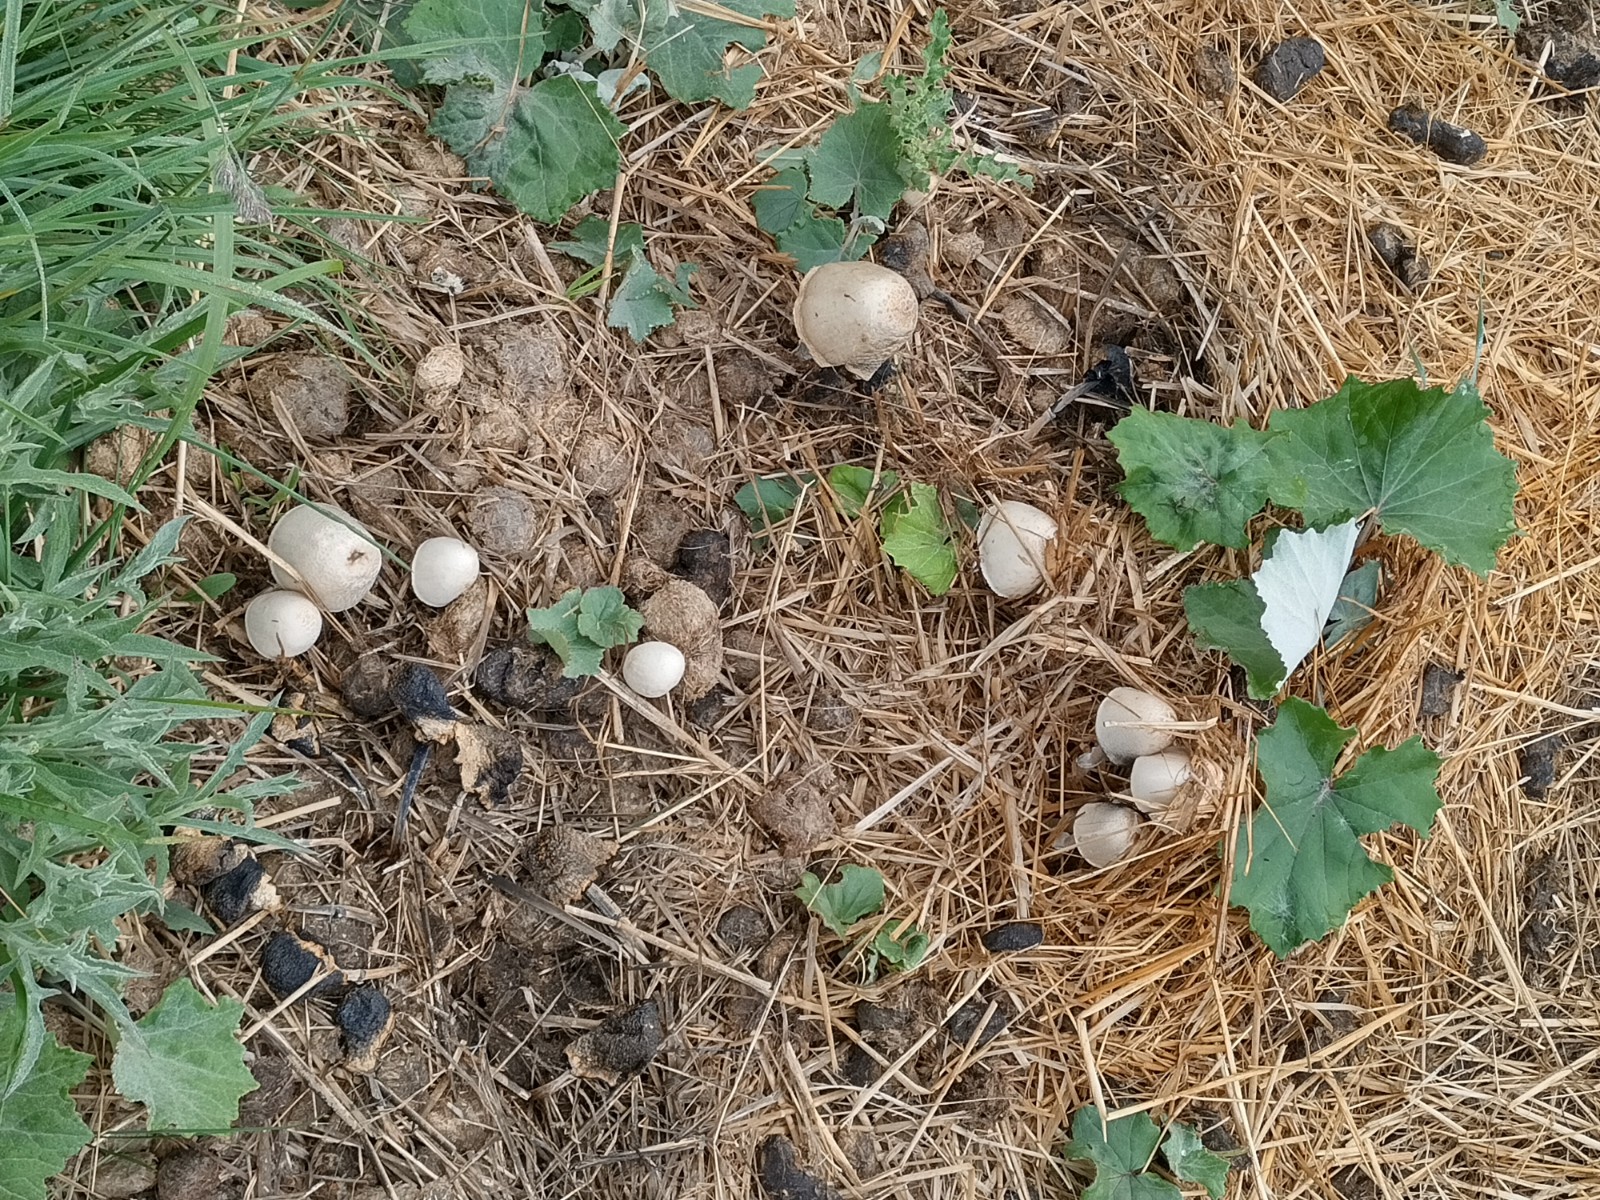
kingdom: Fungi
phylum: Basidiomycota
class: Agaricomycetes
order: Agaricales
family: Bolbitiaceae
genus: Panaeolus
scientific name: Panaeolus semiovatus
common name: ring-glanshat
